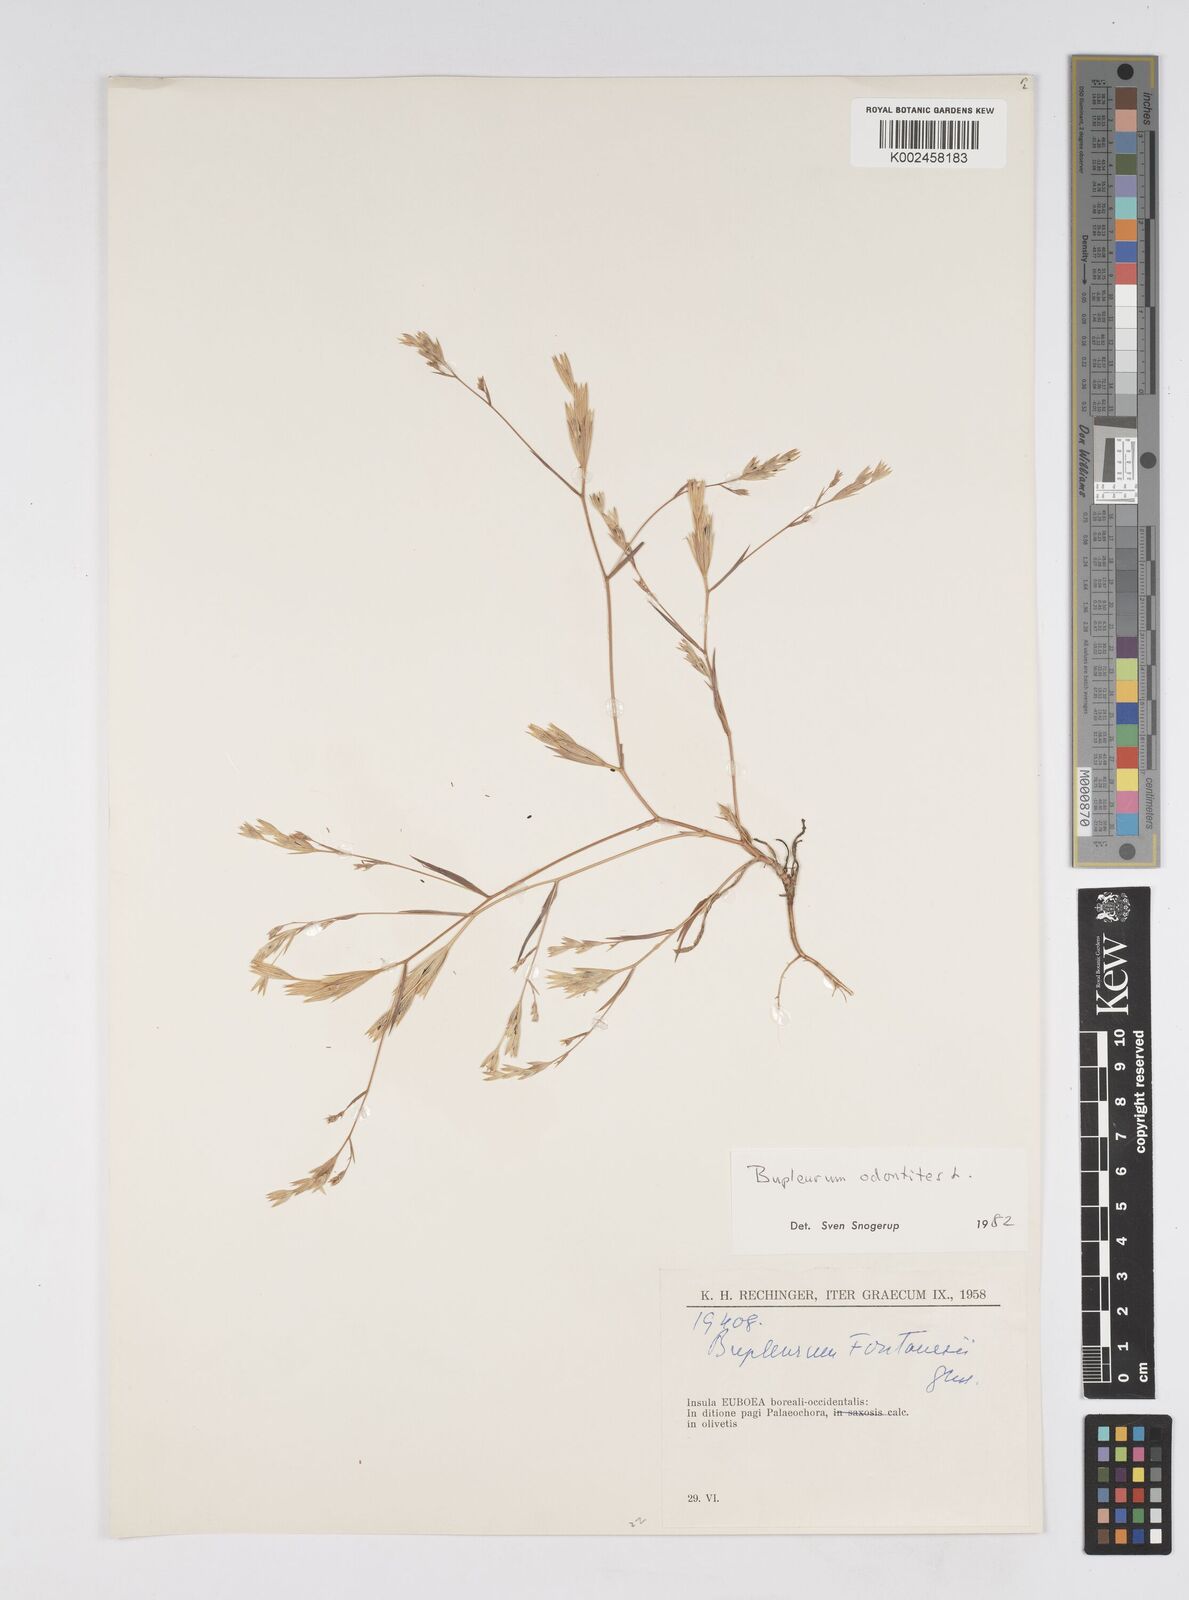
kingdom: Plantae
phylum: Tracheophyta
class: Magnoliopsida
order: Apiales
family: Apiaceae
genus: Bupleurum
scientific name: Bupleurum odontites
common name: Narrowleaf thorow wax
